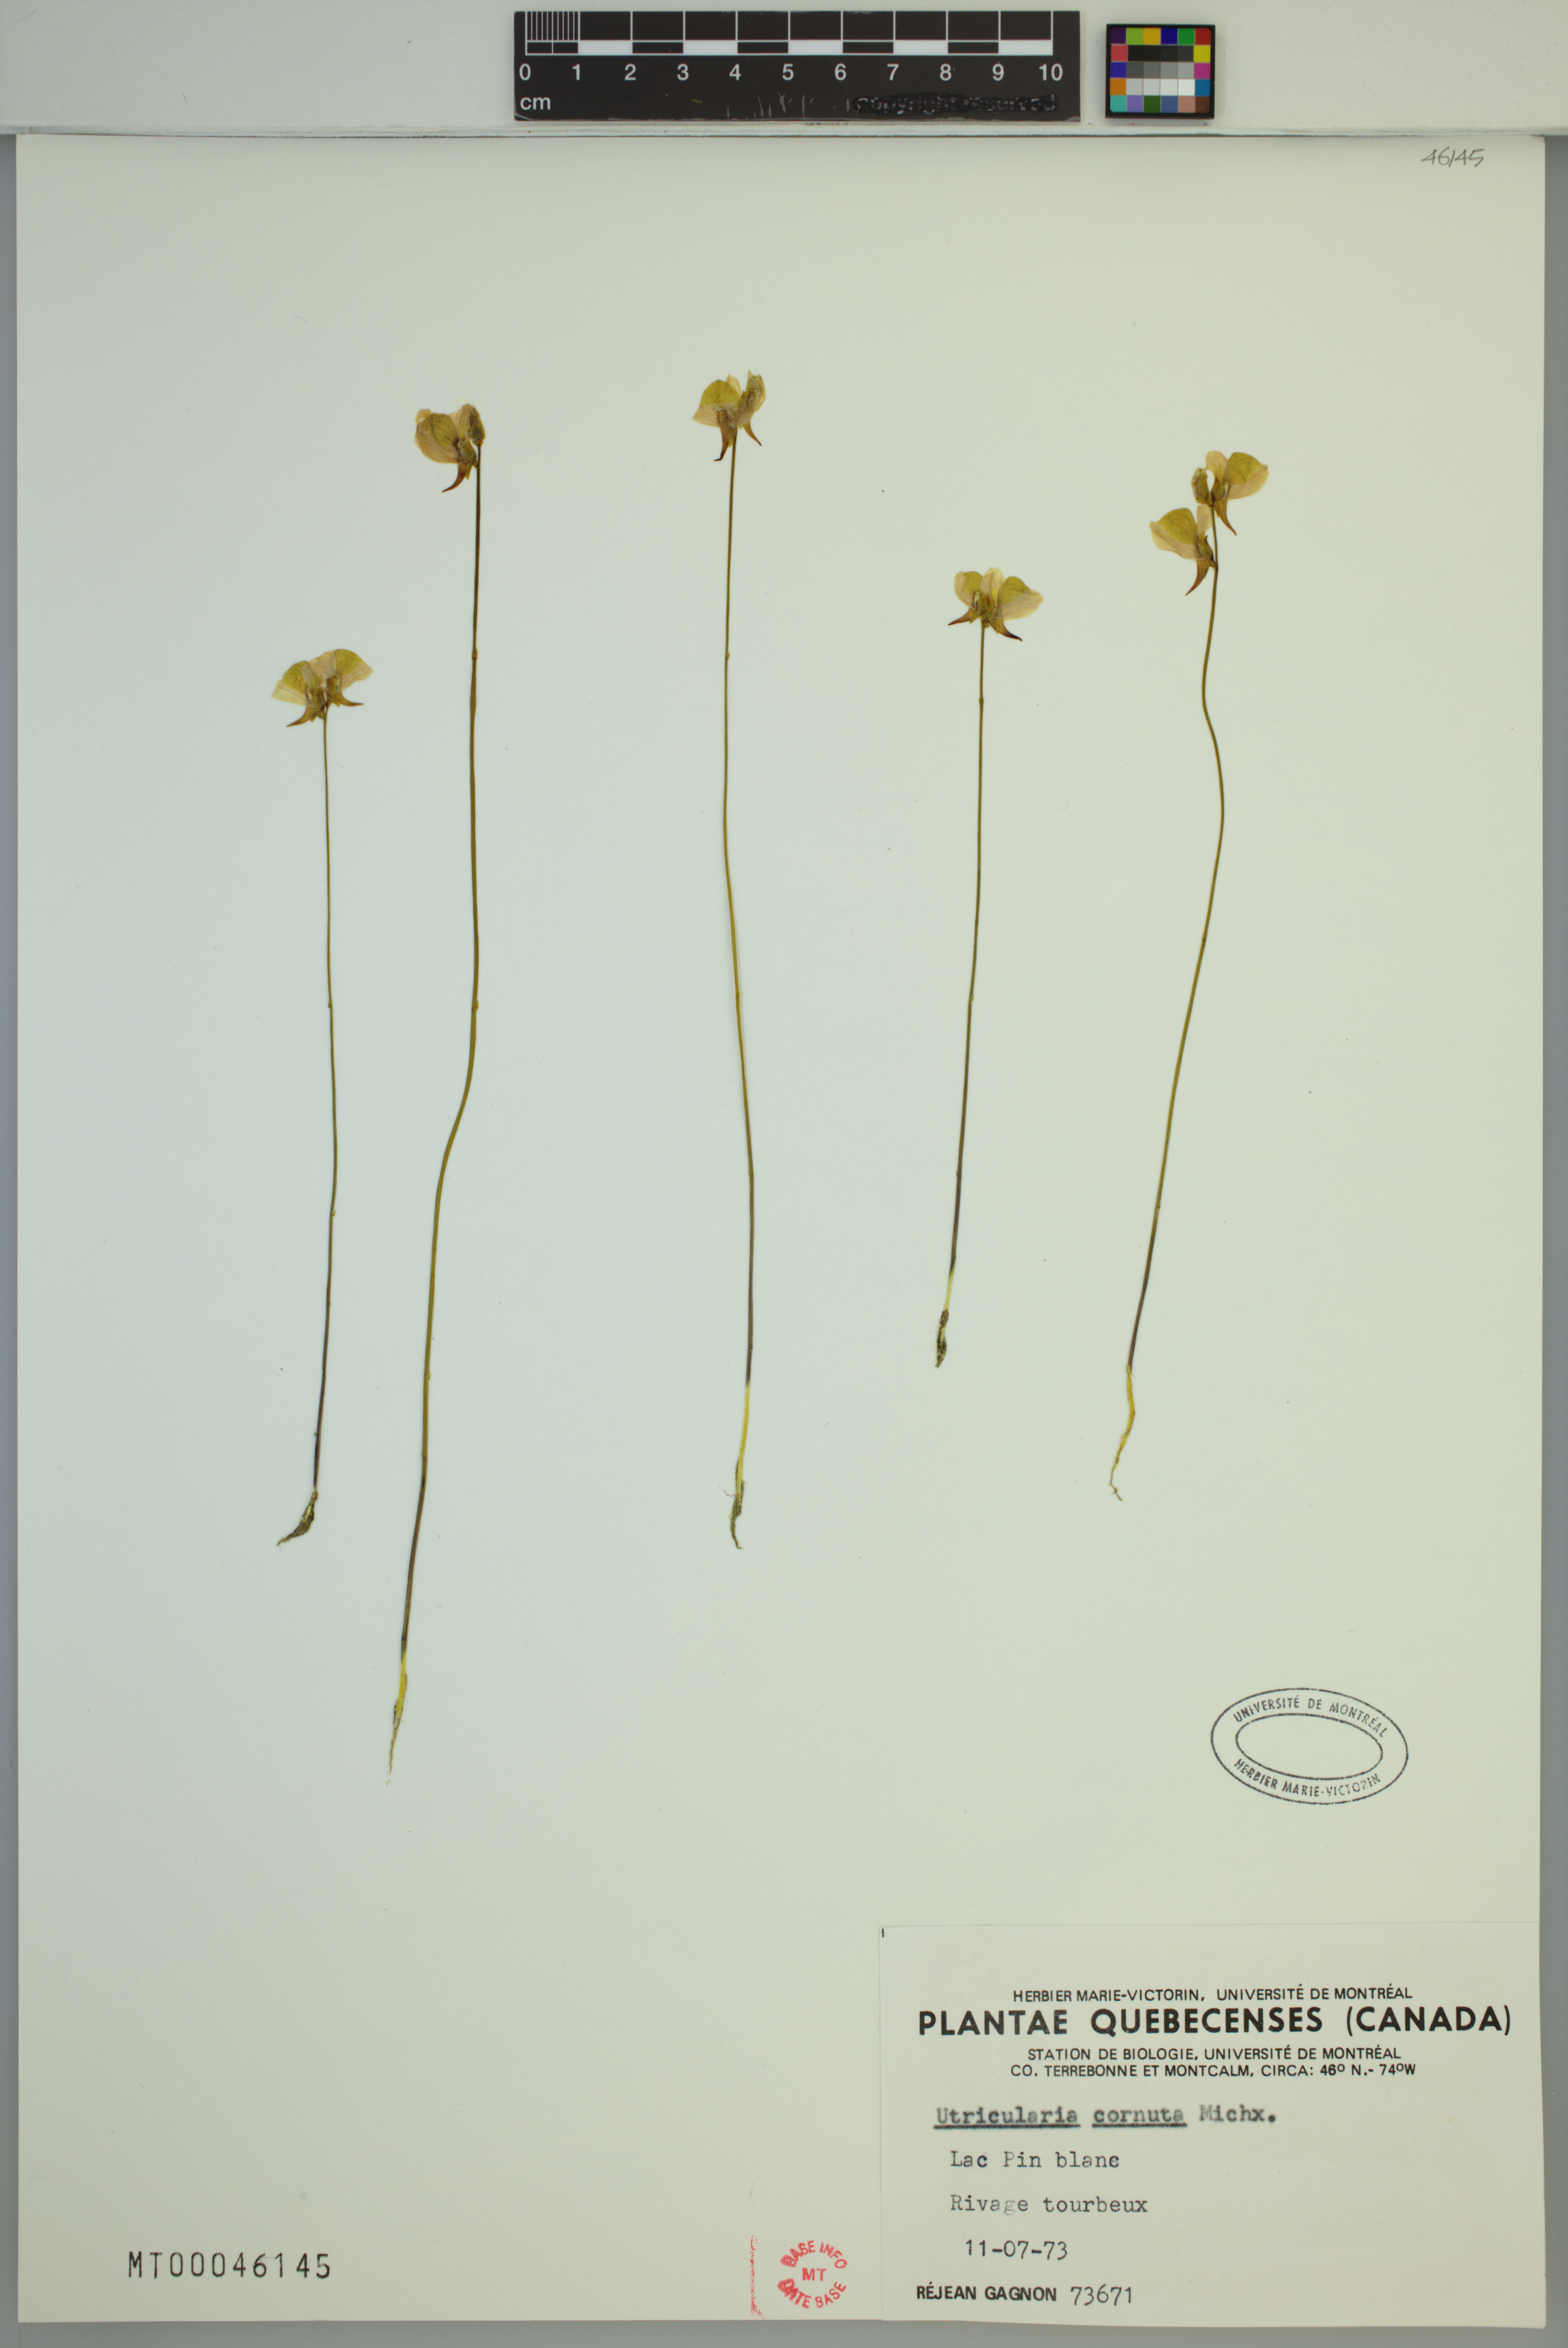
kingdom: Plantae
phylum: Tracheophyta
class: Magnoliopsida
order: Lamiales
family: Lentibulariaceae
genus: Utricularia
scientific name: Utricularia cornuta
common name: Horned bladderwort
